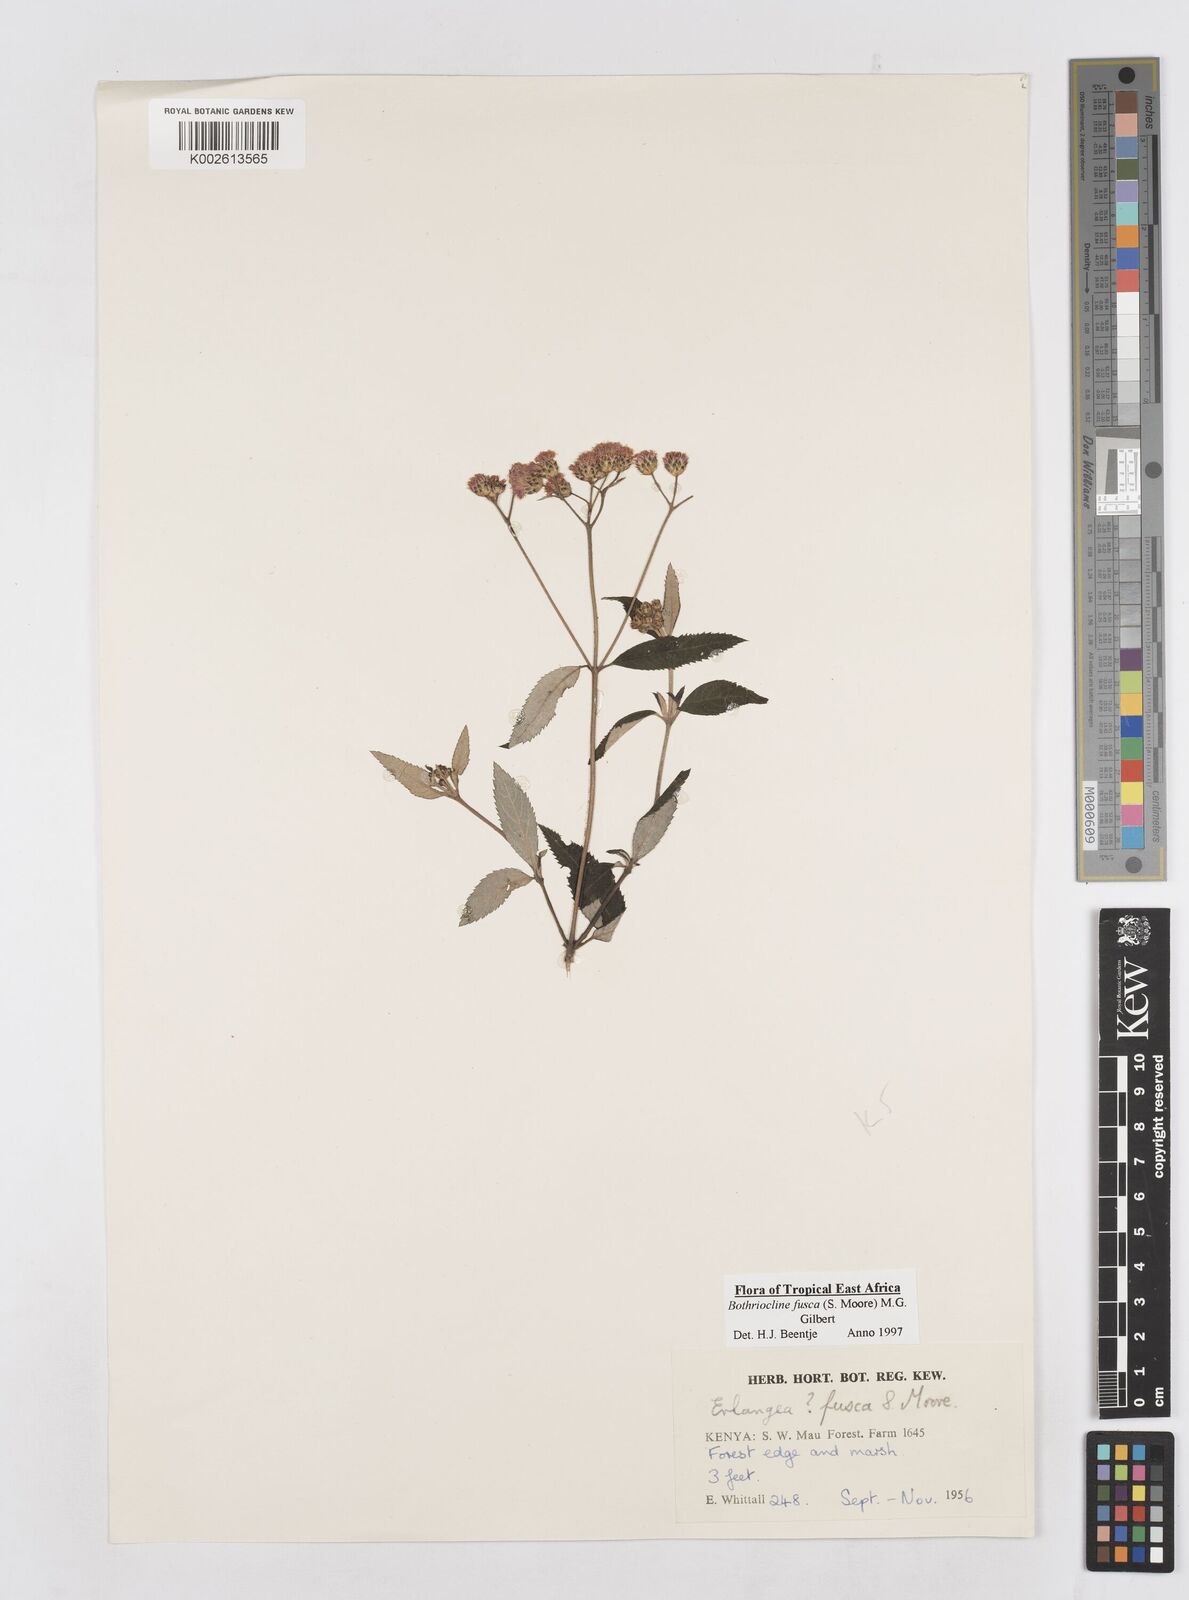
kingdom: Plantae
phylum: Tracheophyta
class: Magnoliopsida
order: Asterales
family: Asteraceae
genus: Bothriocline
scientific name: Bothriocline fusca
